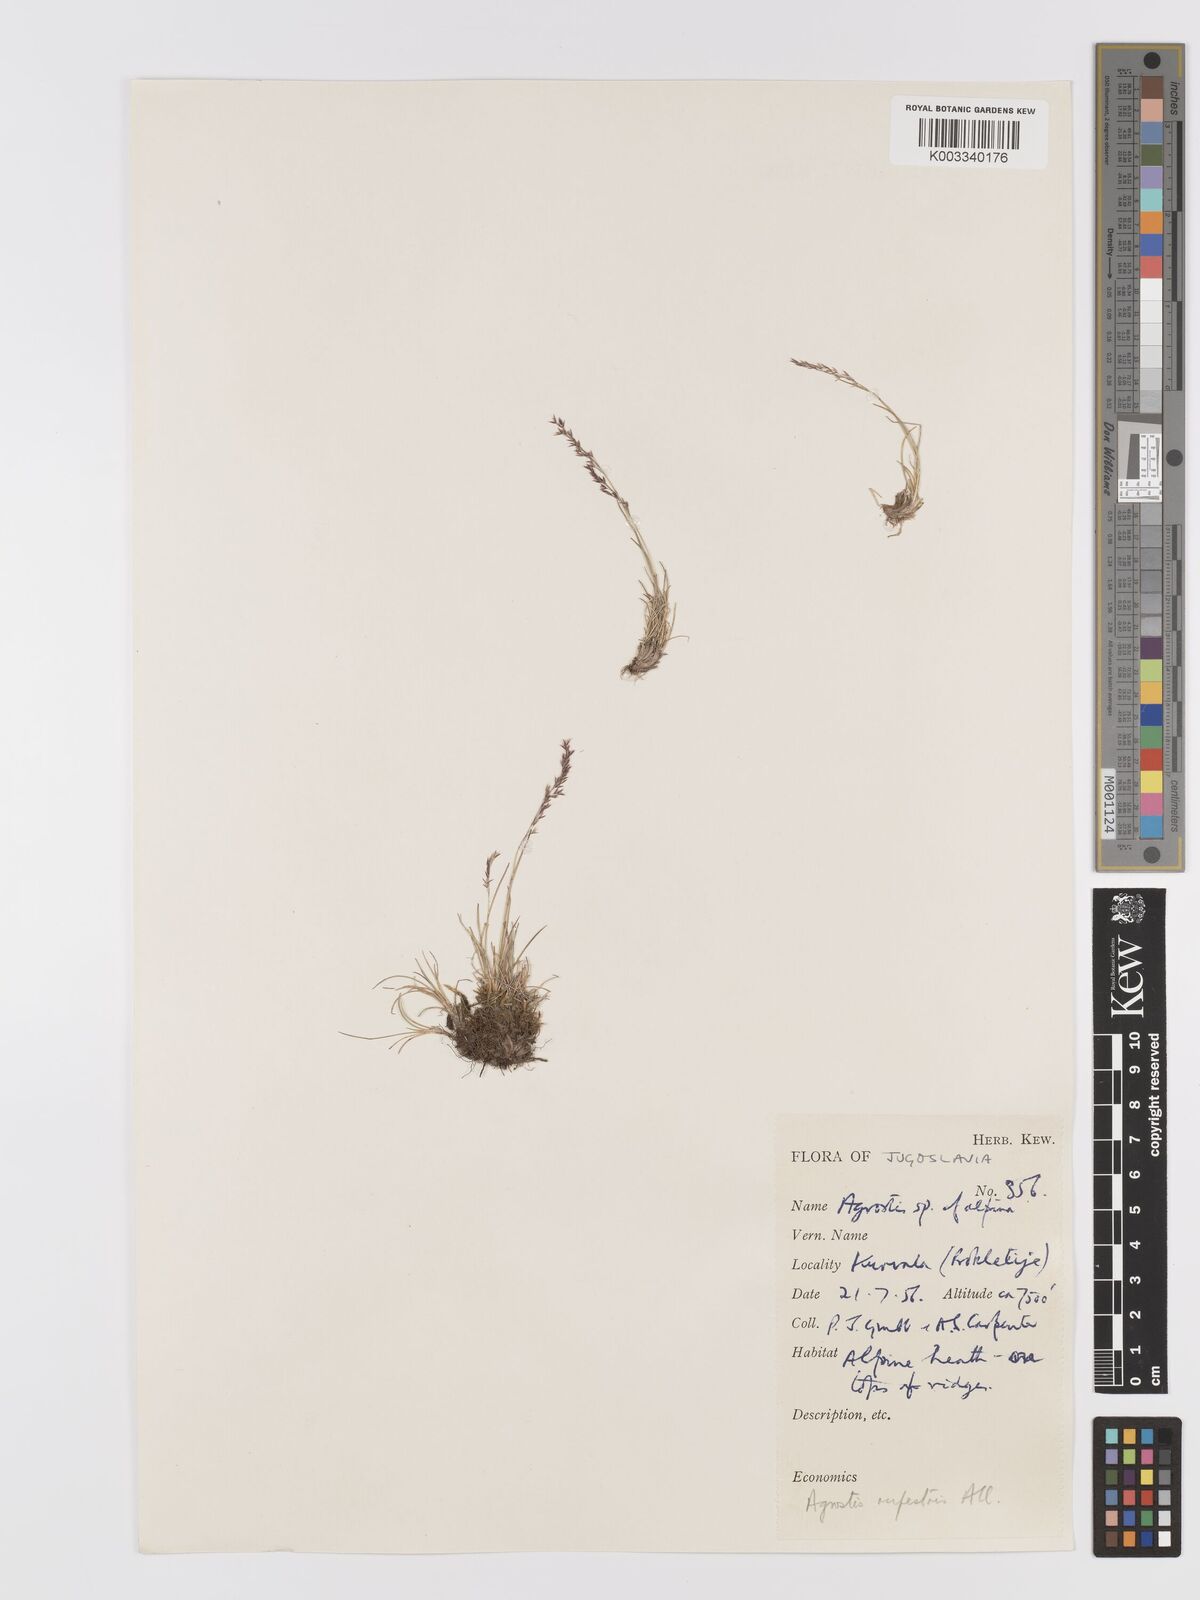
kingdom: Plantae
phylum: Tracheophyta
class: Liliopsida
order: Poales
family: Poaceae
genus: Agrostis
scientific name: Agrostis rupestris
